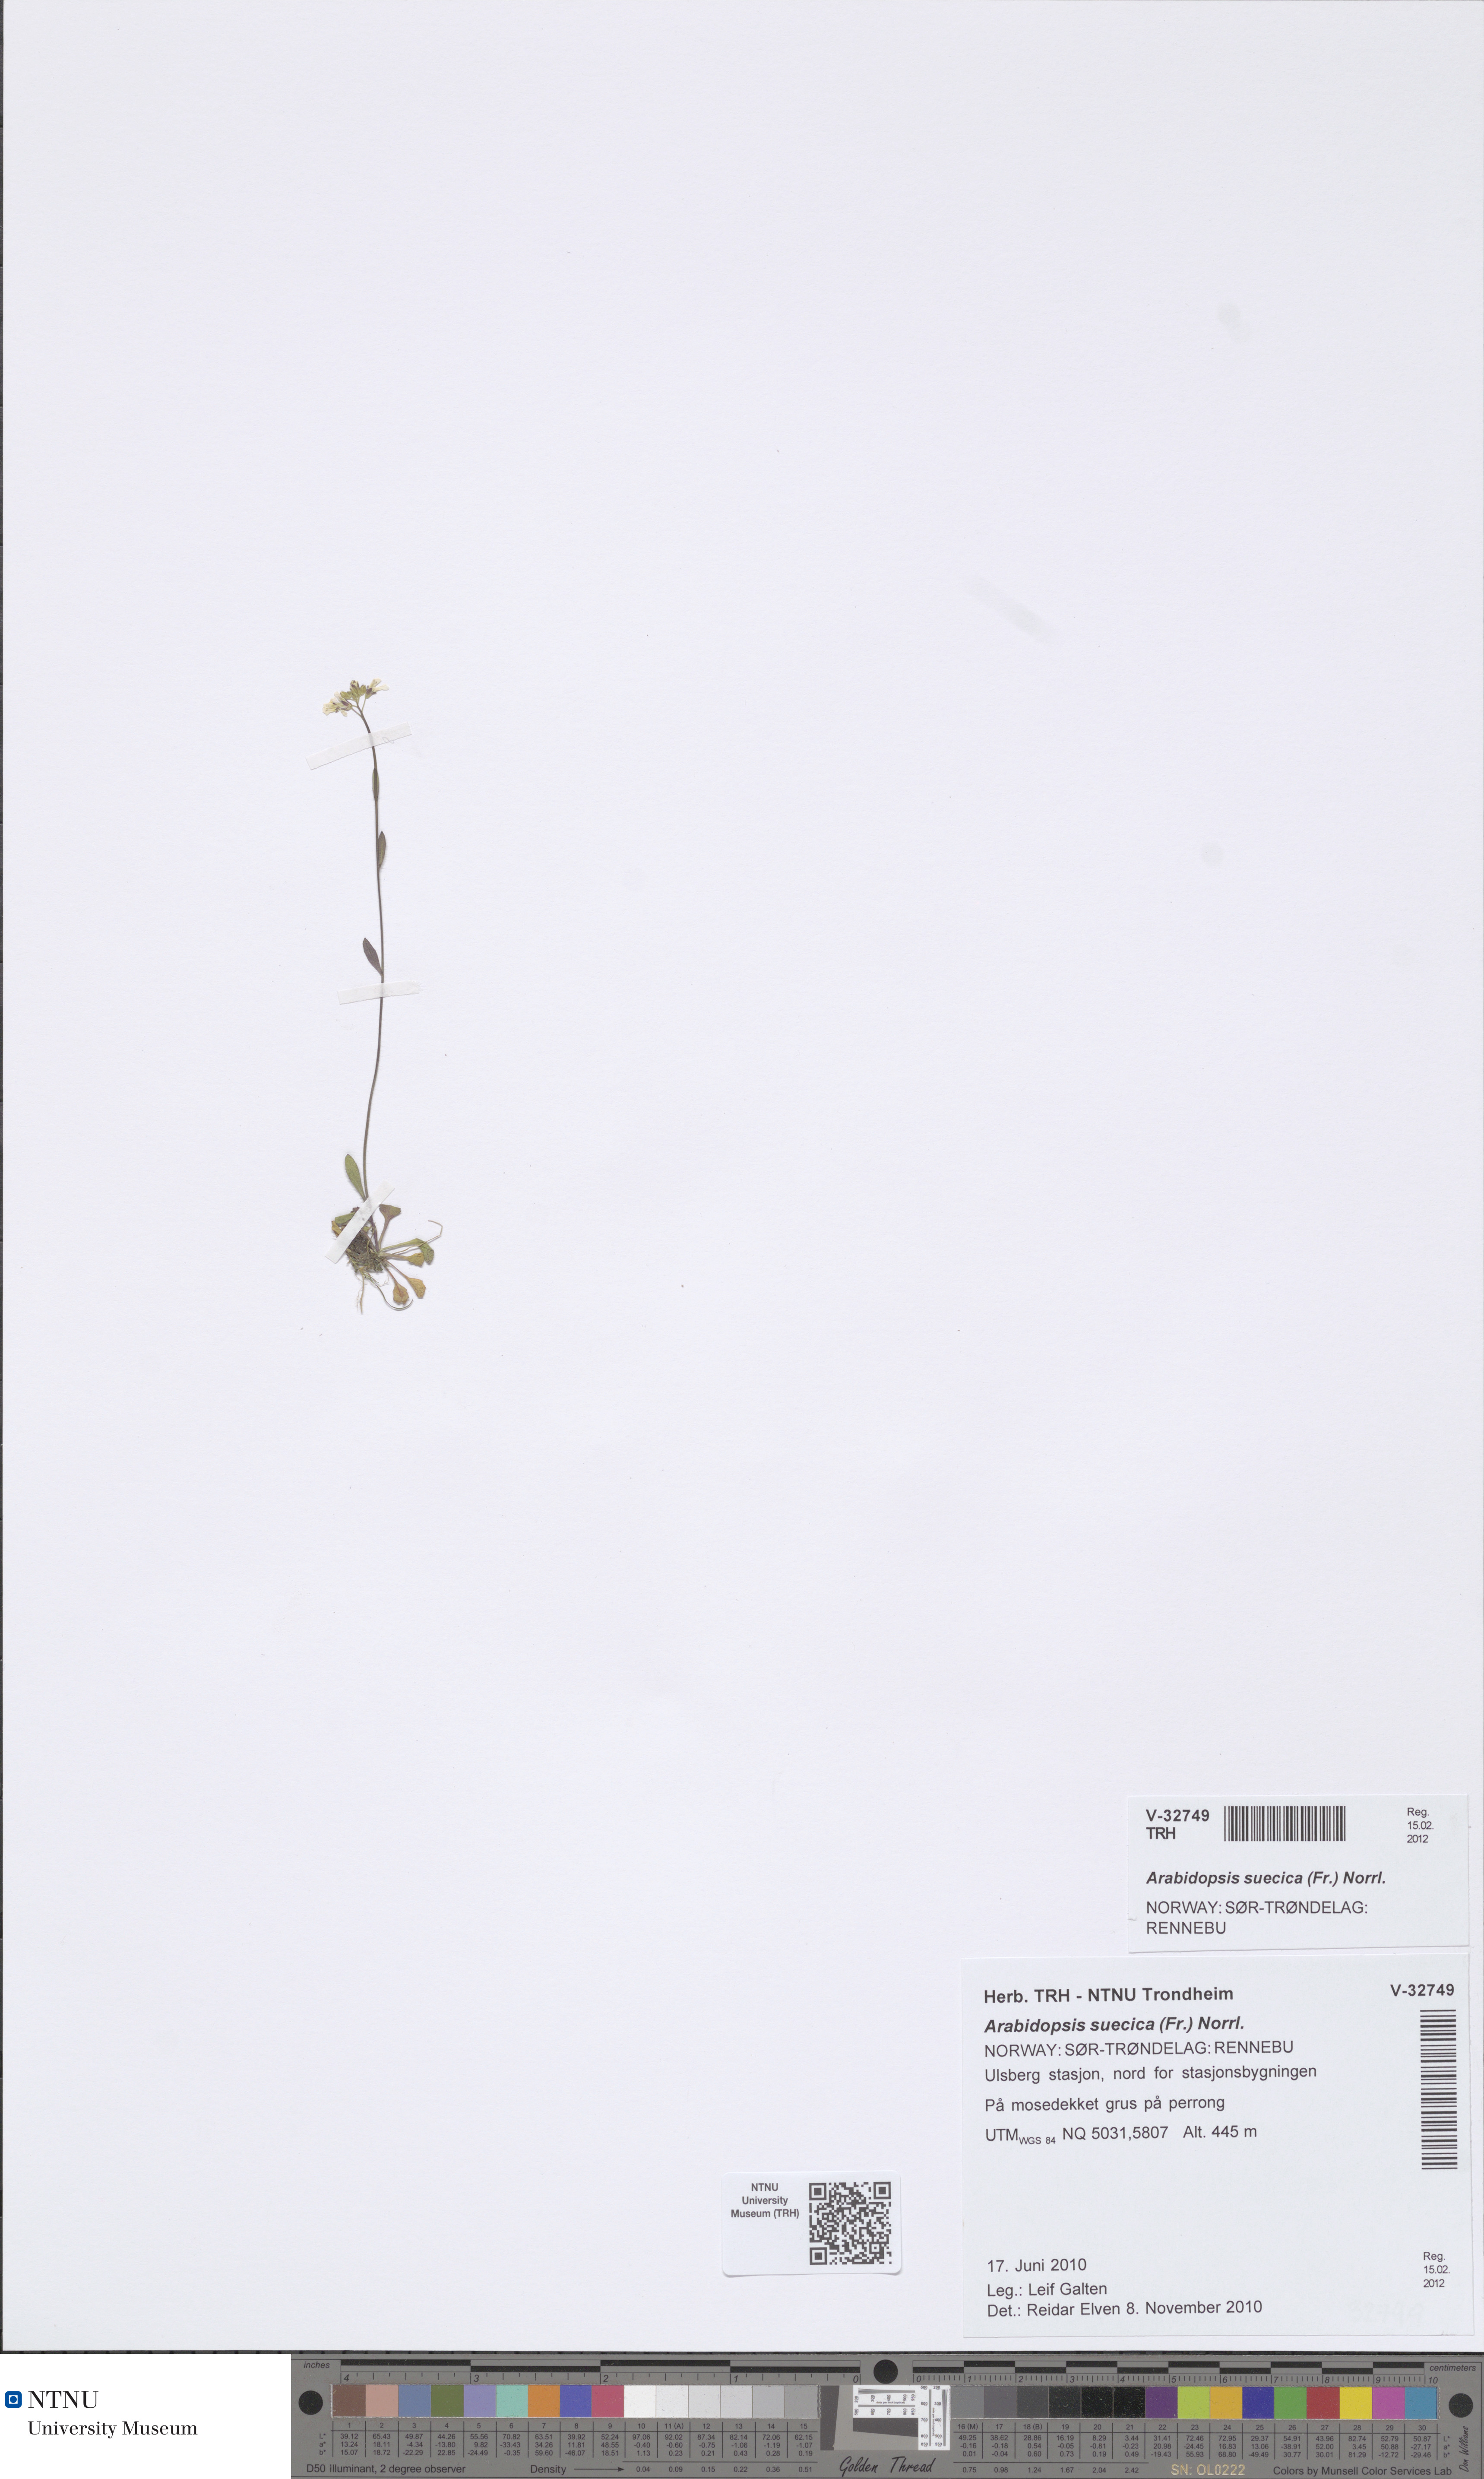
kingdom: Plantae
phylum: Tracheophyta
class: Magnoliopsida
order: Brassicales
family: Brassicaceae
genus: Arabidopsis
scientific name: Arabidopsis suecica
